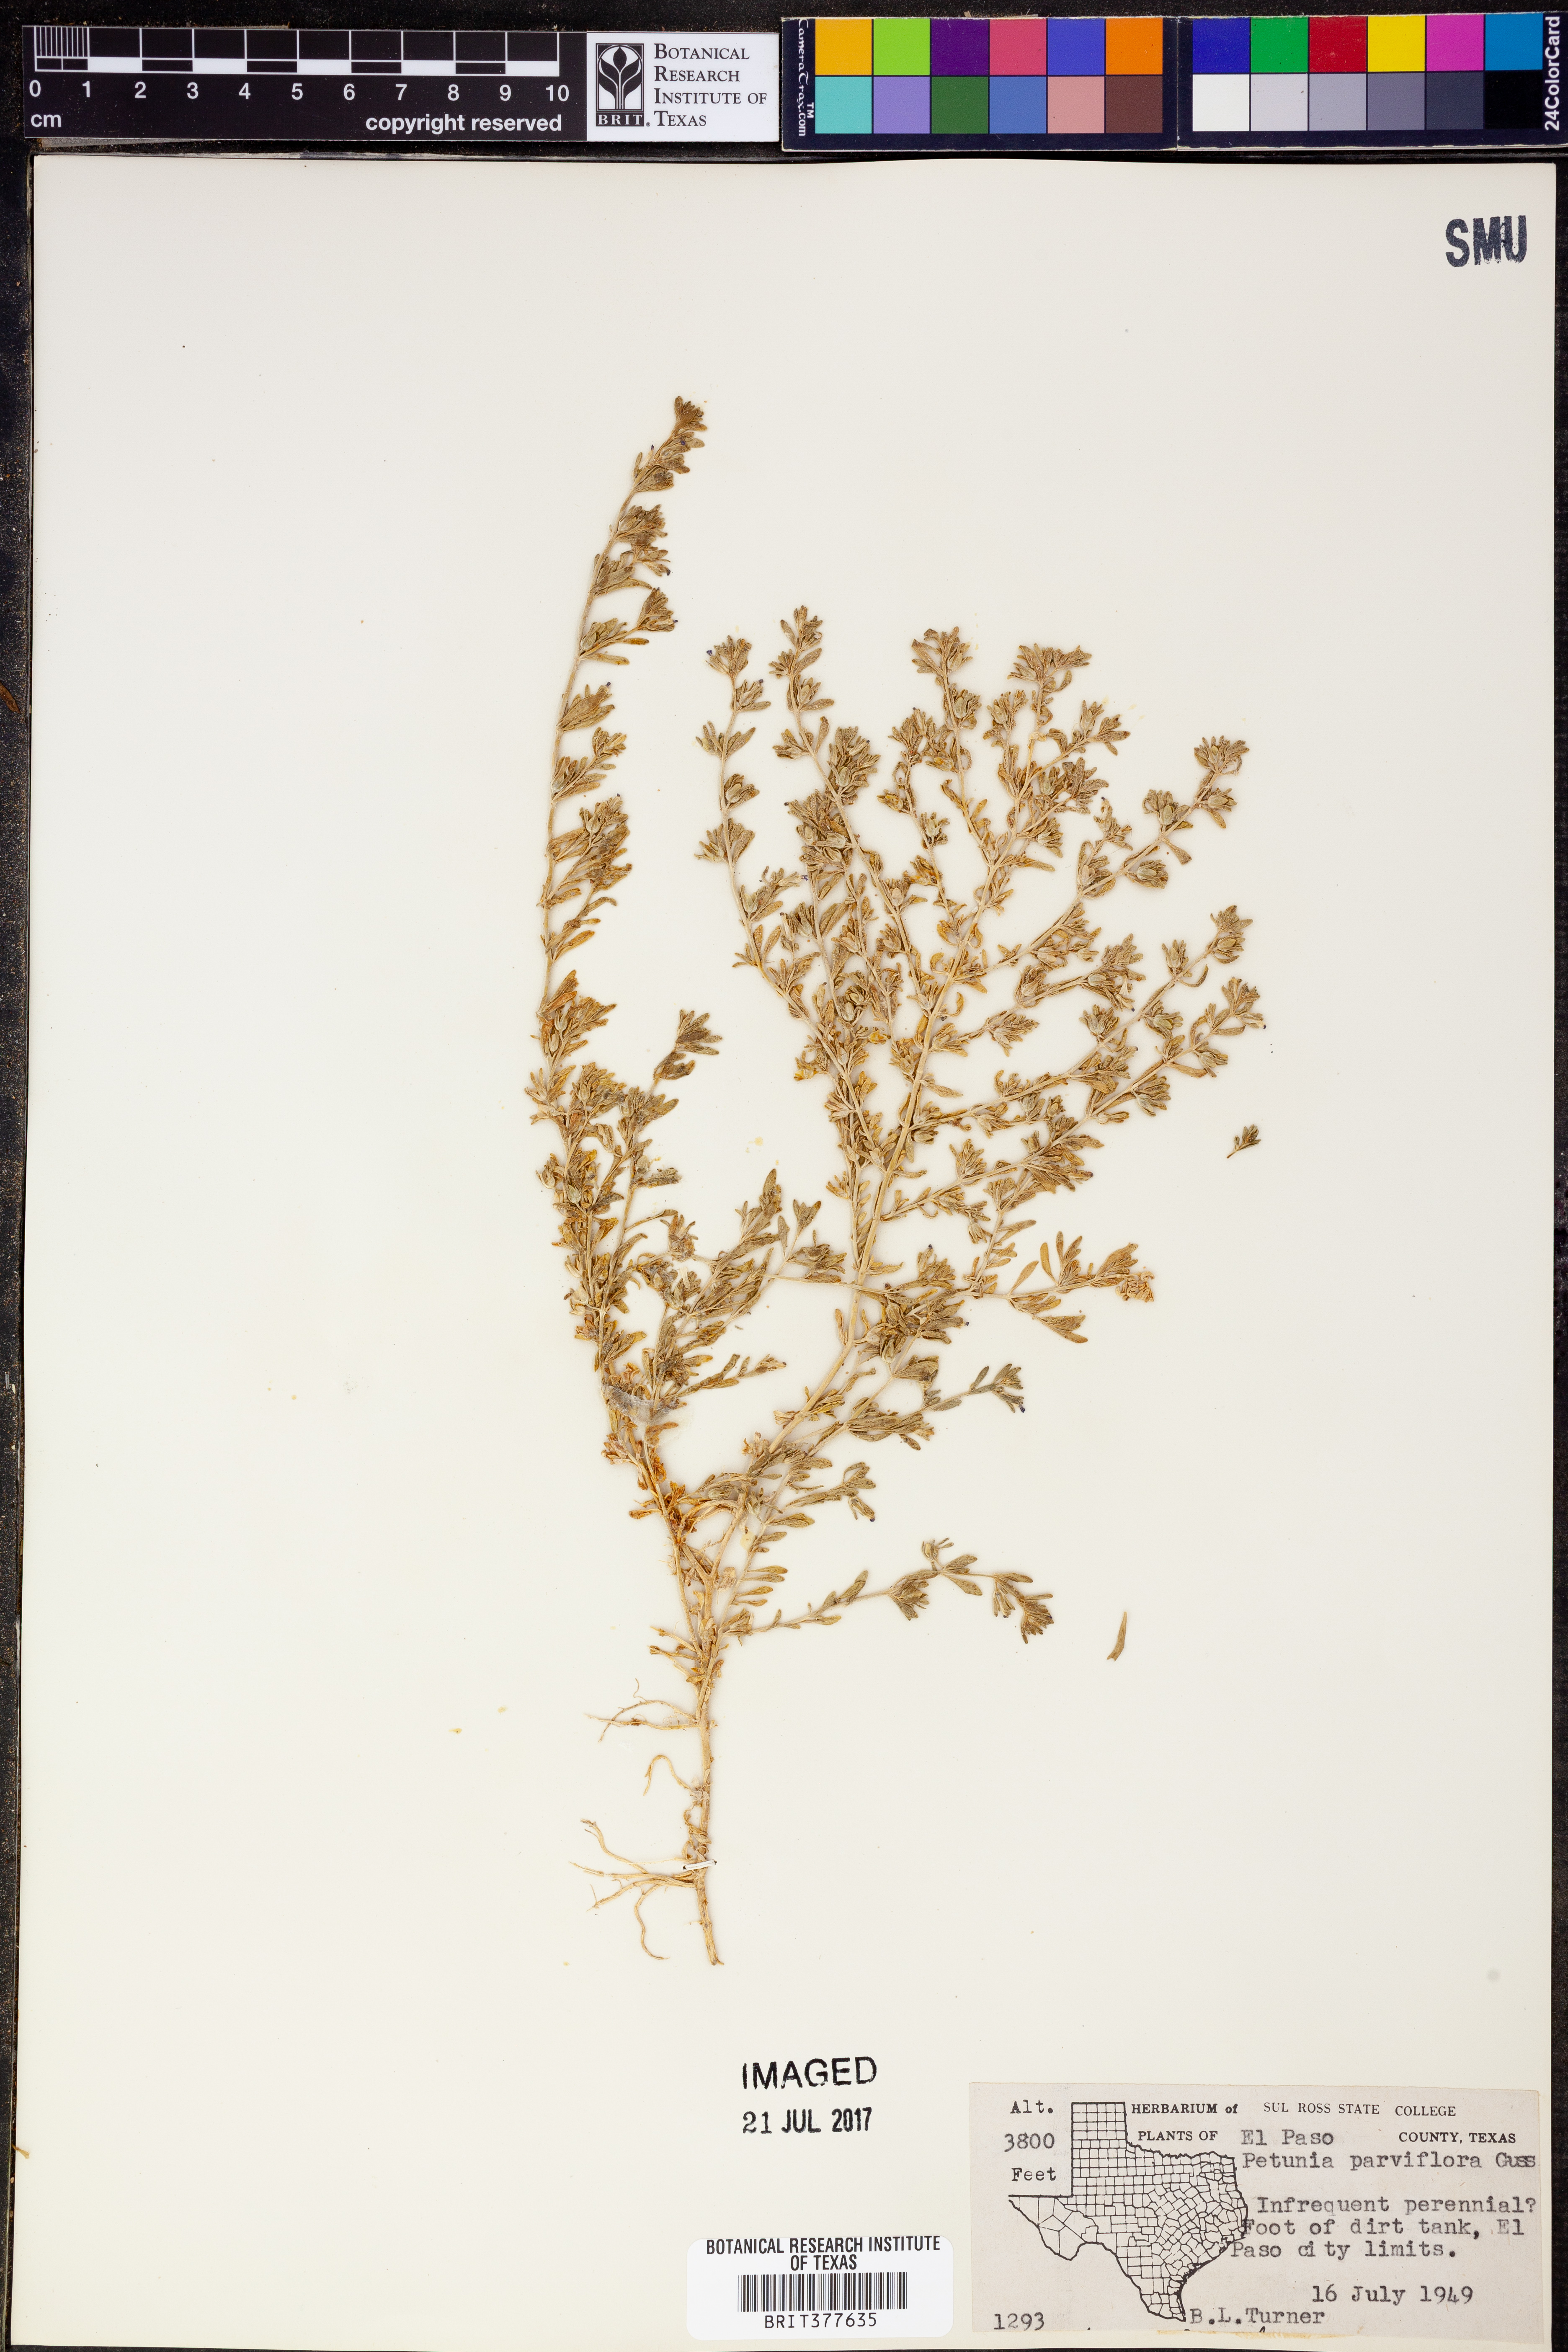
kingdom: Plantae
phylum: Tracheophyta
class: Magnoliopsida
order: Solanales
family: Solanaceae
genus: Calibrachoa
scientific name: Calibrachoa parviflora
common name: Seaside petunia
